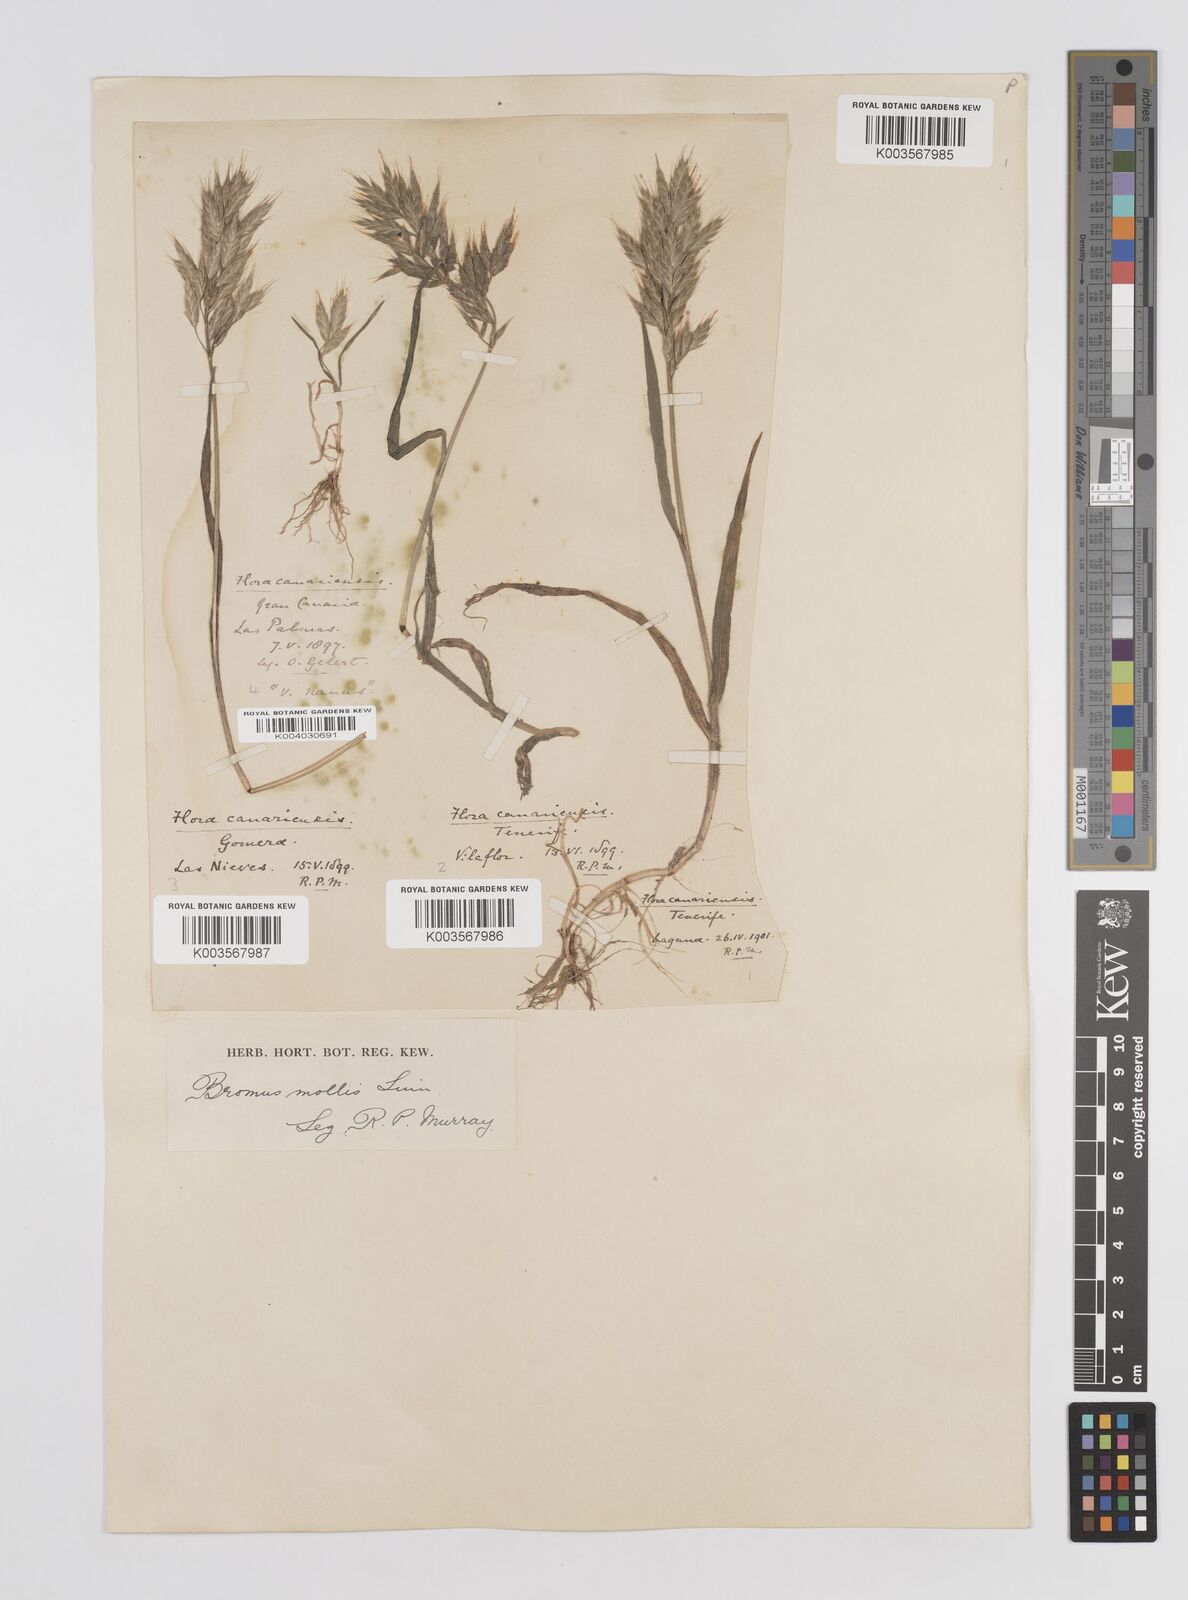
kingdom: Plantae
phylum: Tracheophyta
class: Liliopsida
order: Poales
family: Poaceae
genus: Bromus
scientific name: Bromus hordeaceus
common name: Soft brome
